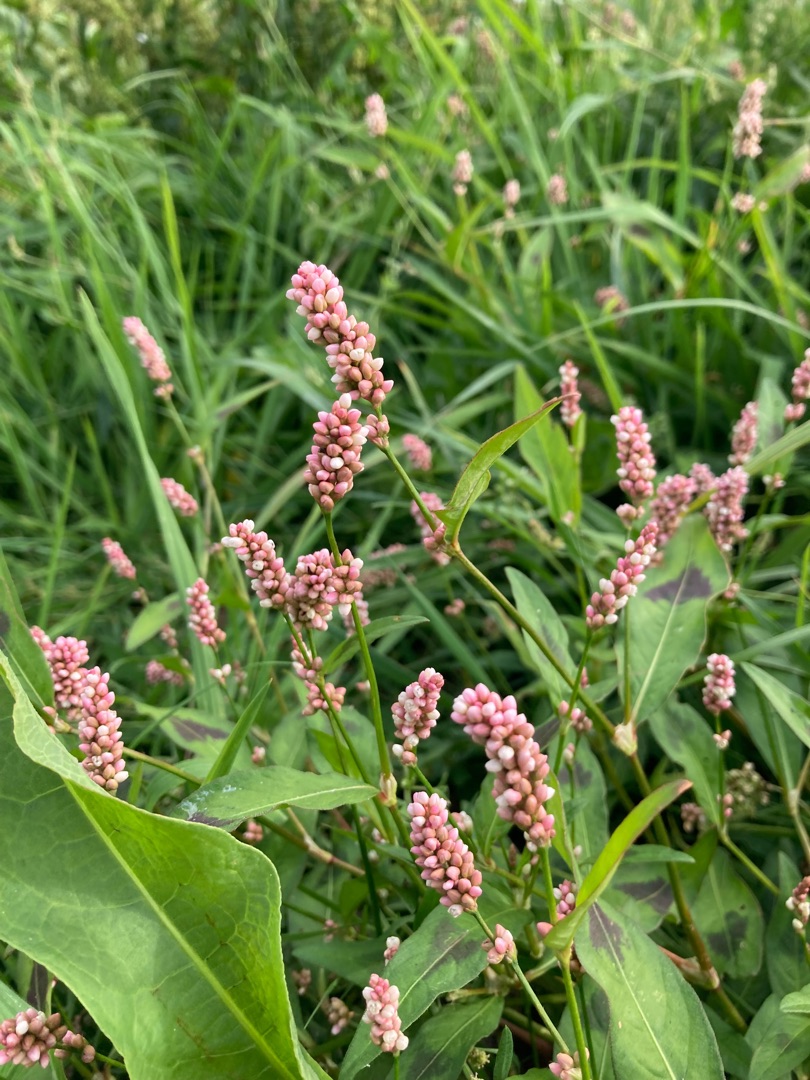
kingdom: Plantae
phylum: Tracheophyta
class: Magnoliopsida
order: Caryophyllales
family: Polygonaceae
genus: Persicaria
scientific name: Persicaria maculosa
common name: Fersken-pileurt
